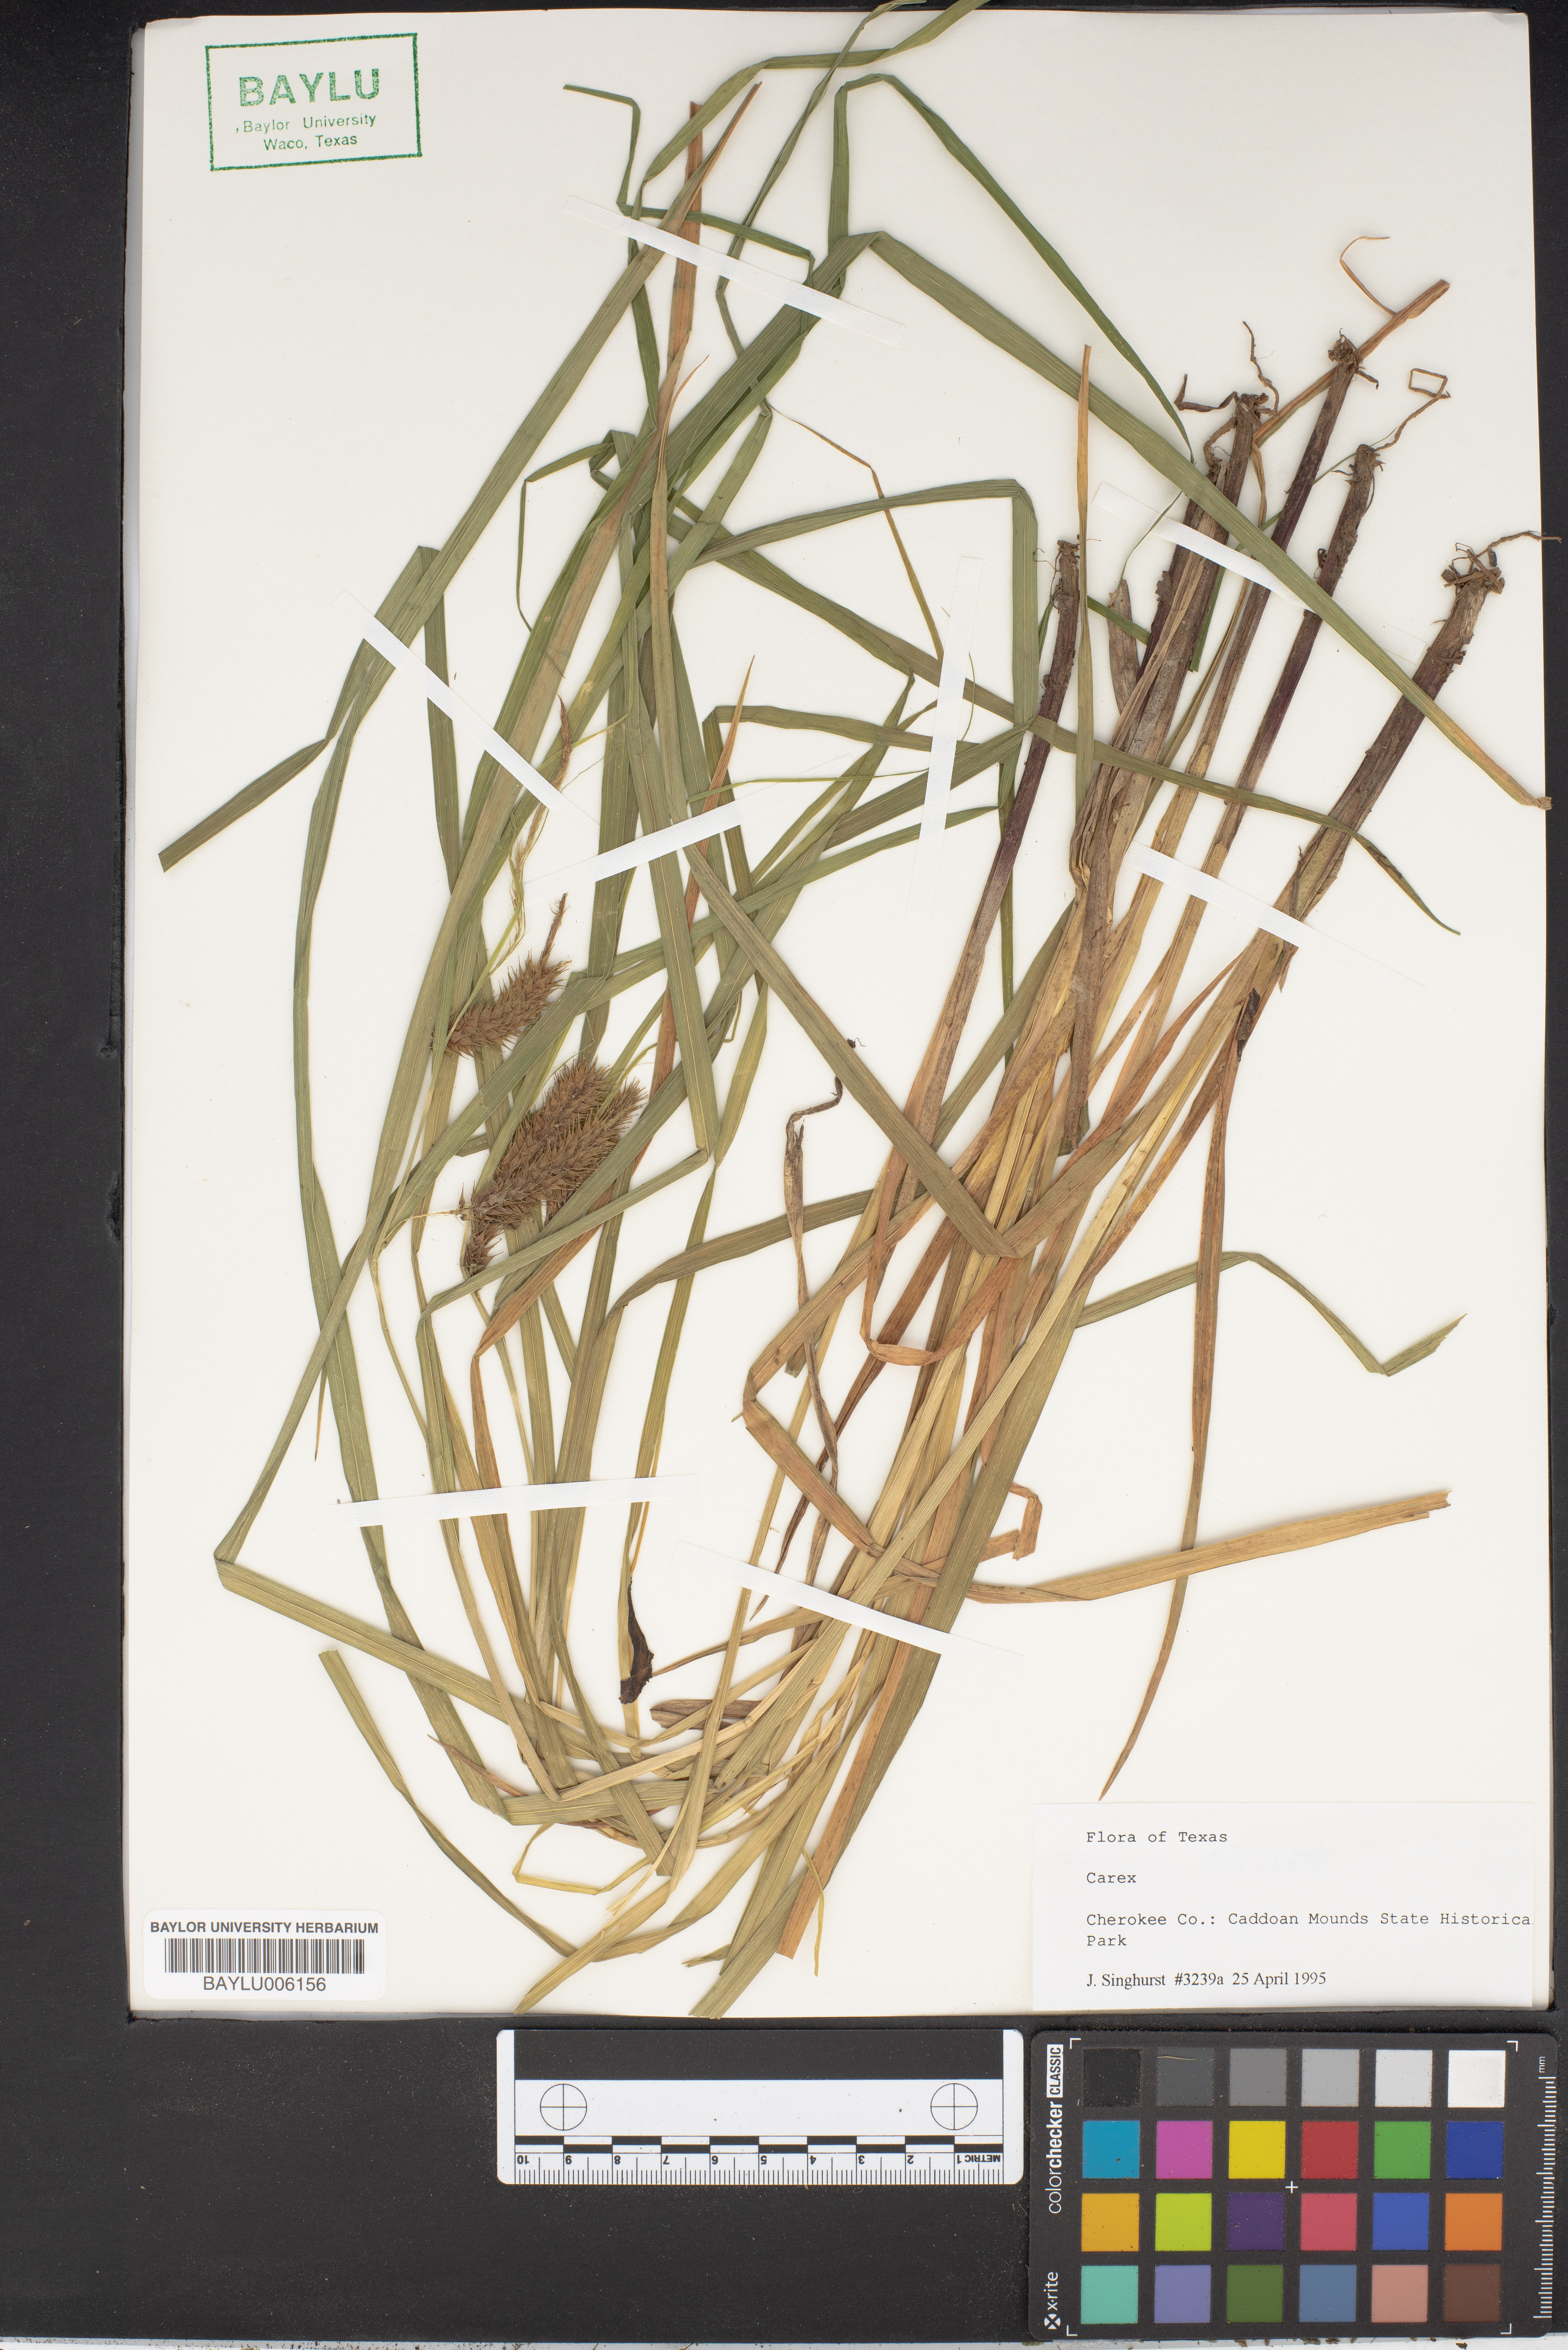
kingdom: Plantae
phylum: Tracheophyta
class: Liliopsida
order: Poales
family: Cyperaceae
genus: Carex
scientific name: Carex
